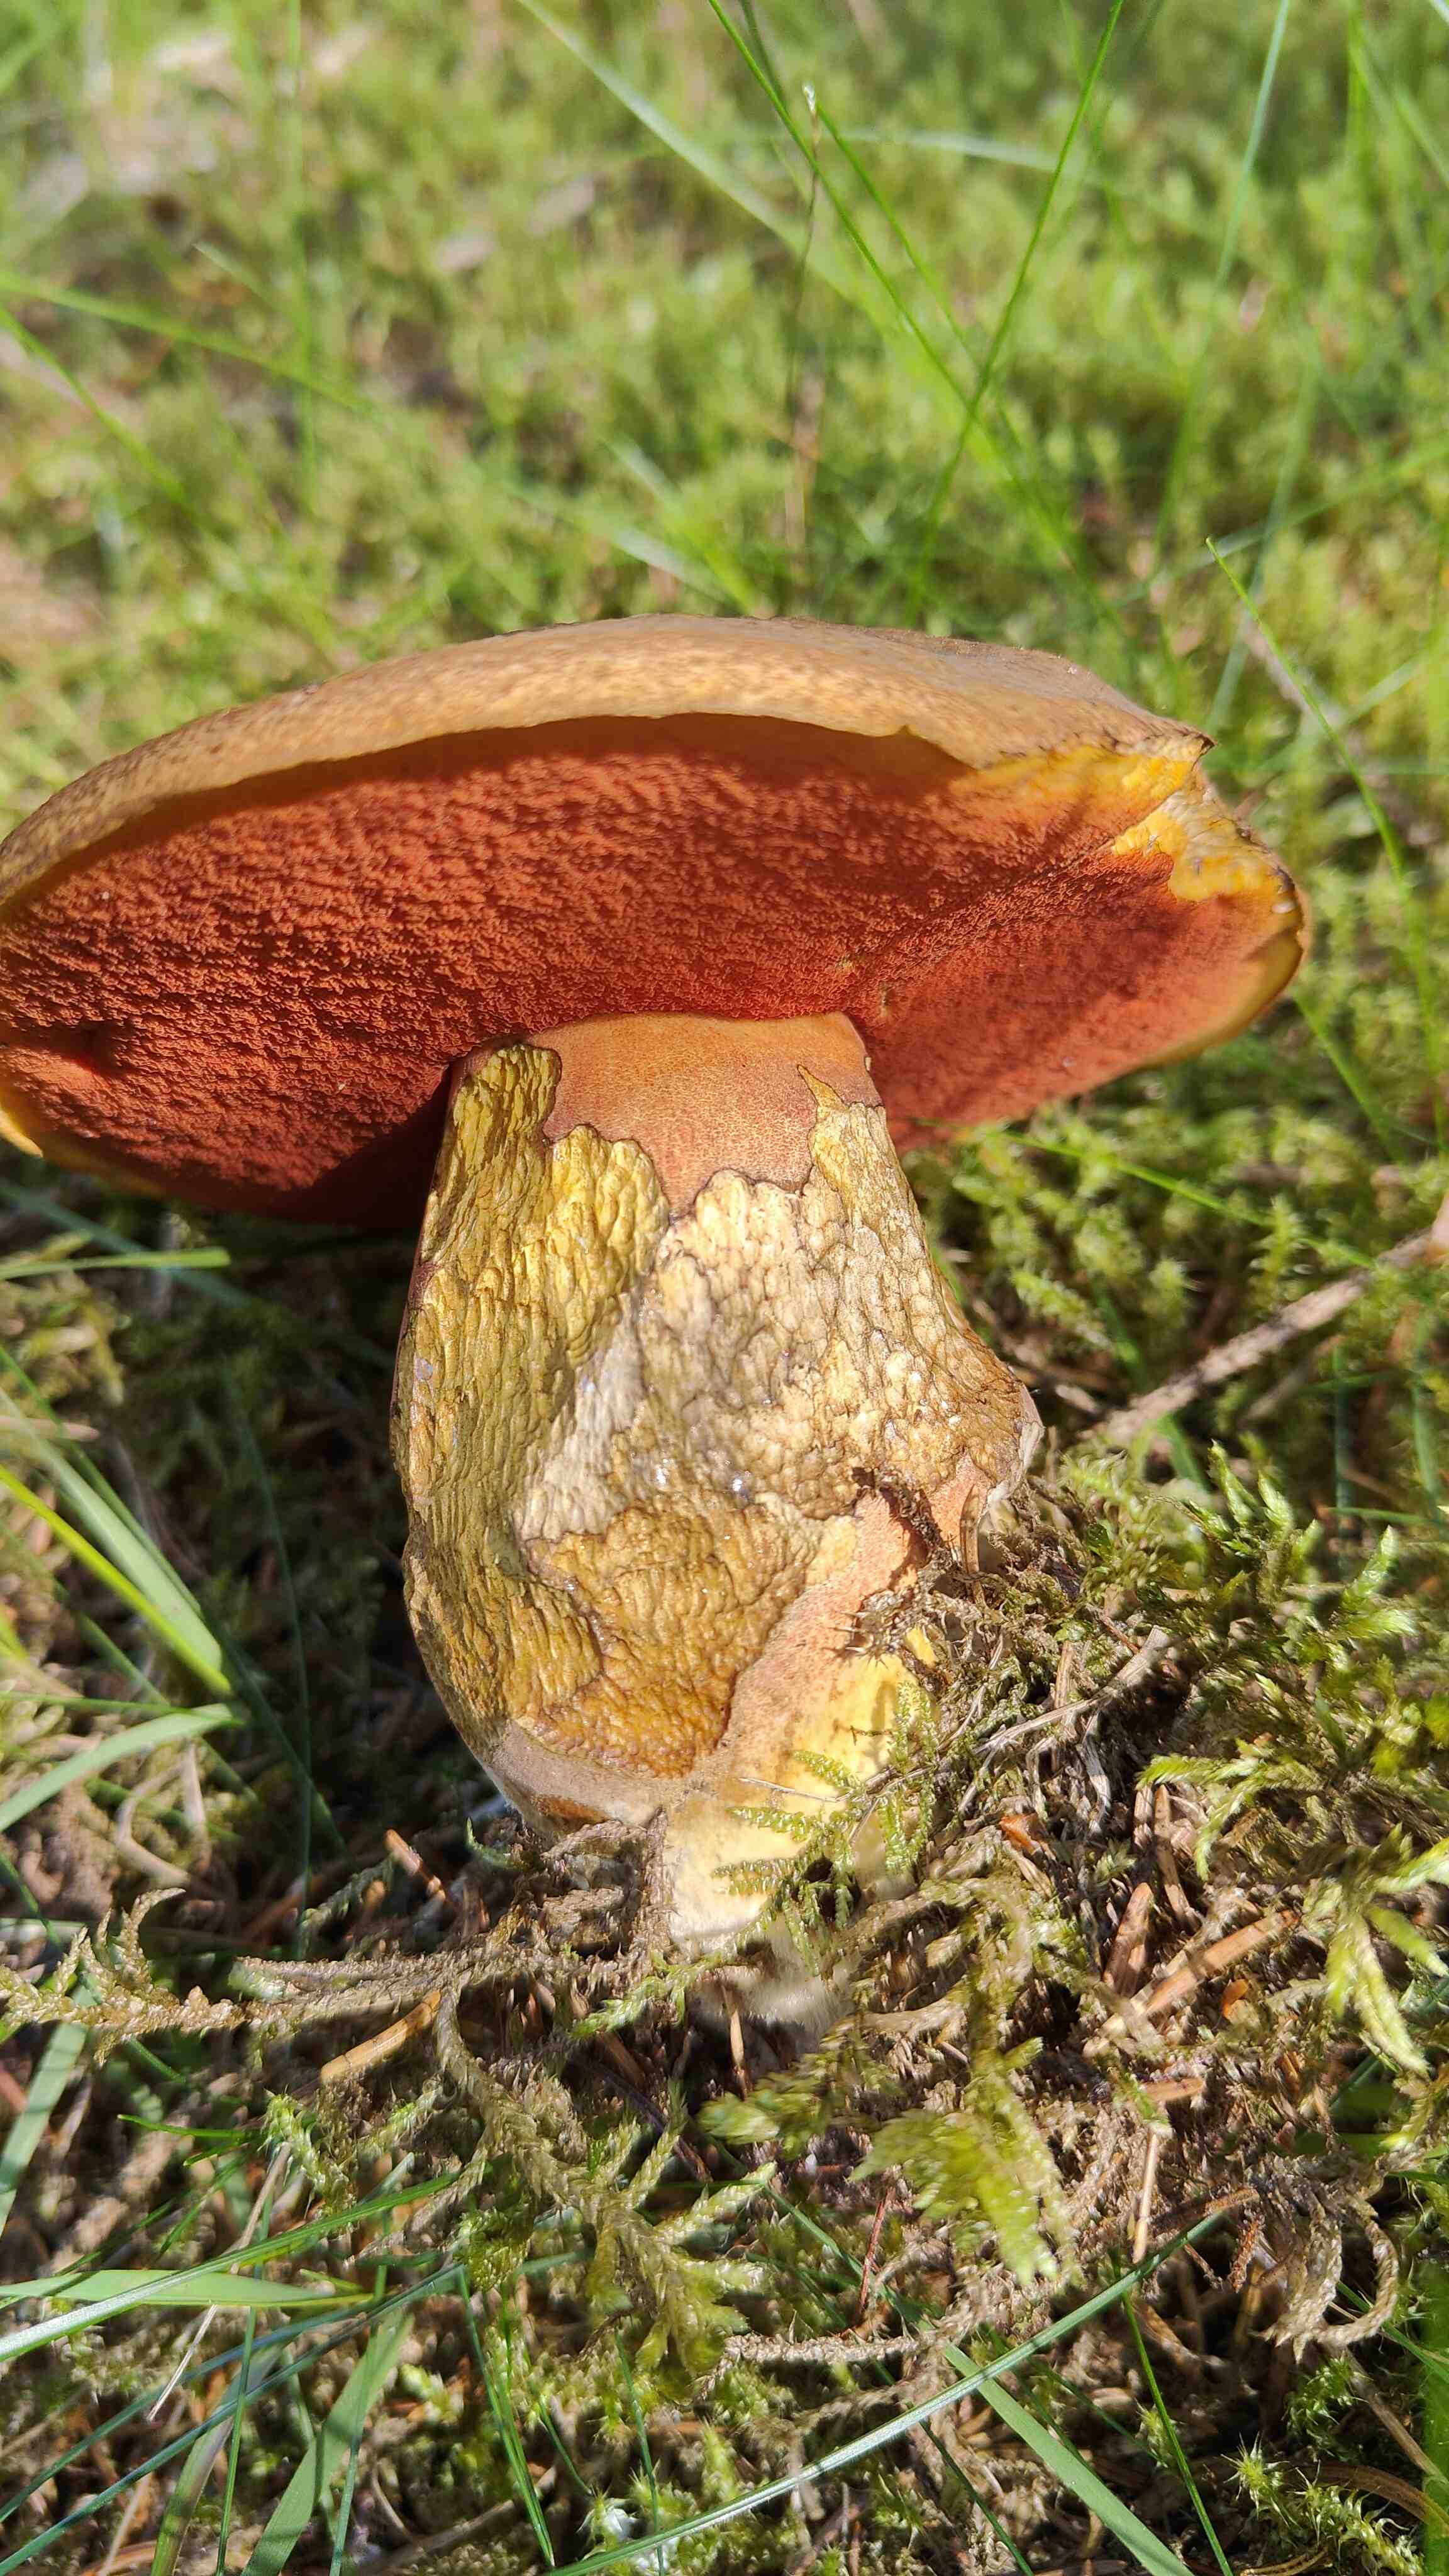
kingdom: Fungi
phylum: Basidiomycota
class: Agaricomycetes
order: Boletales
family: Boletaceae
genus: Neoboletus
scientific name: Neoboletus erythropus
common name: punktstokket indigorørhat
